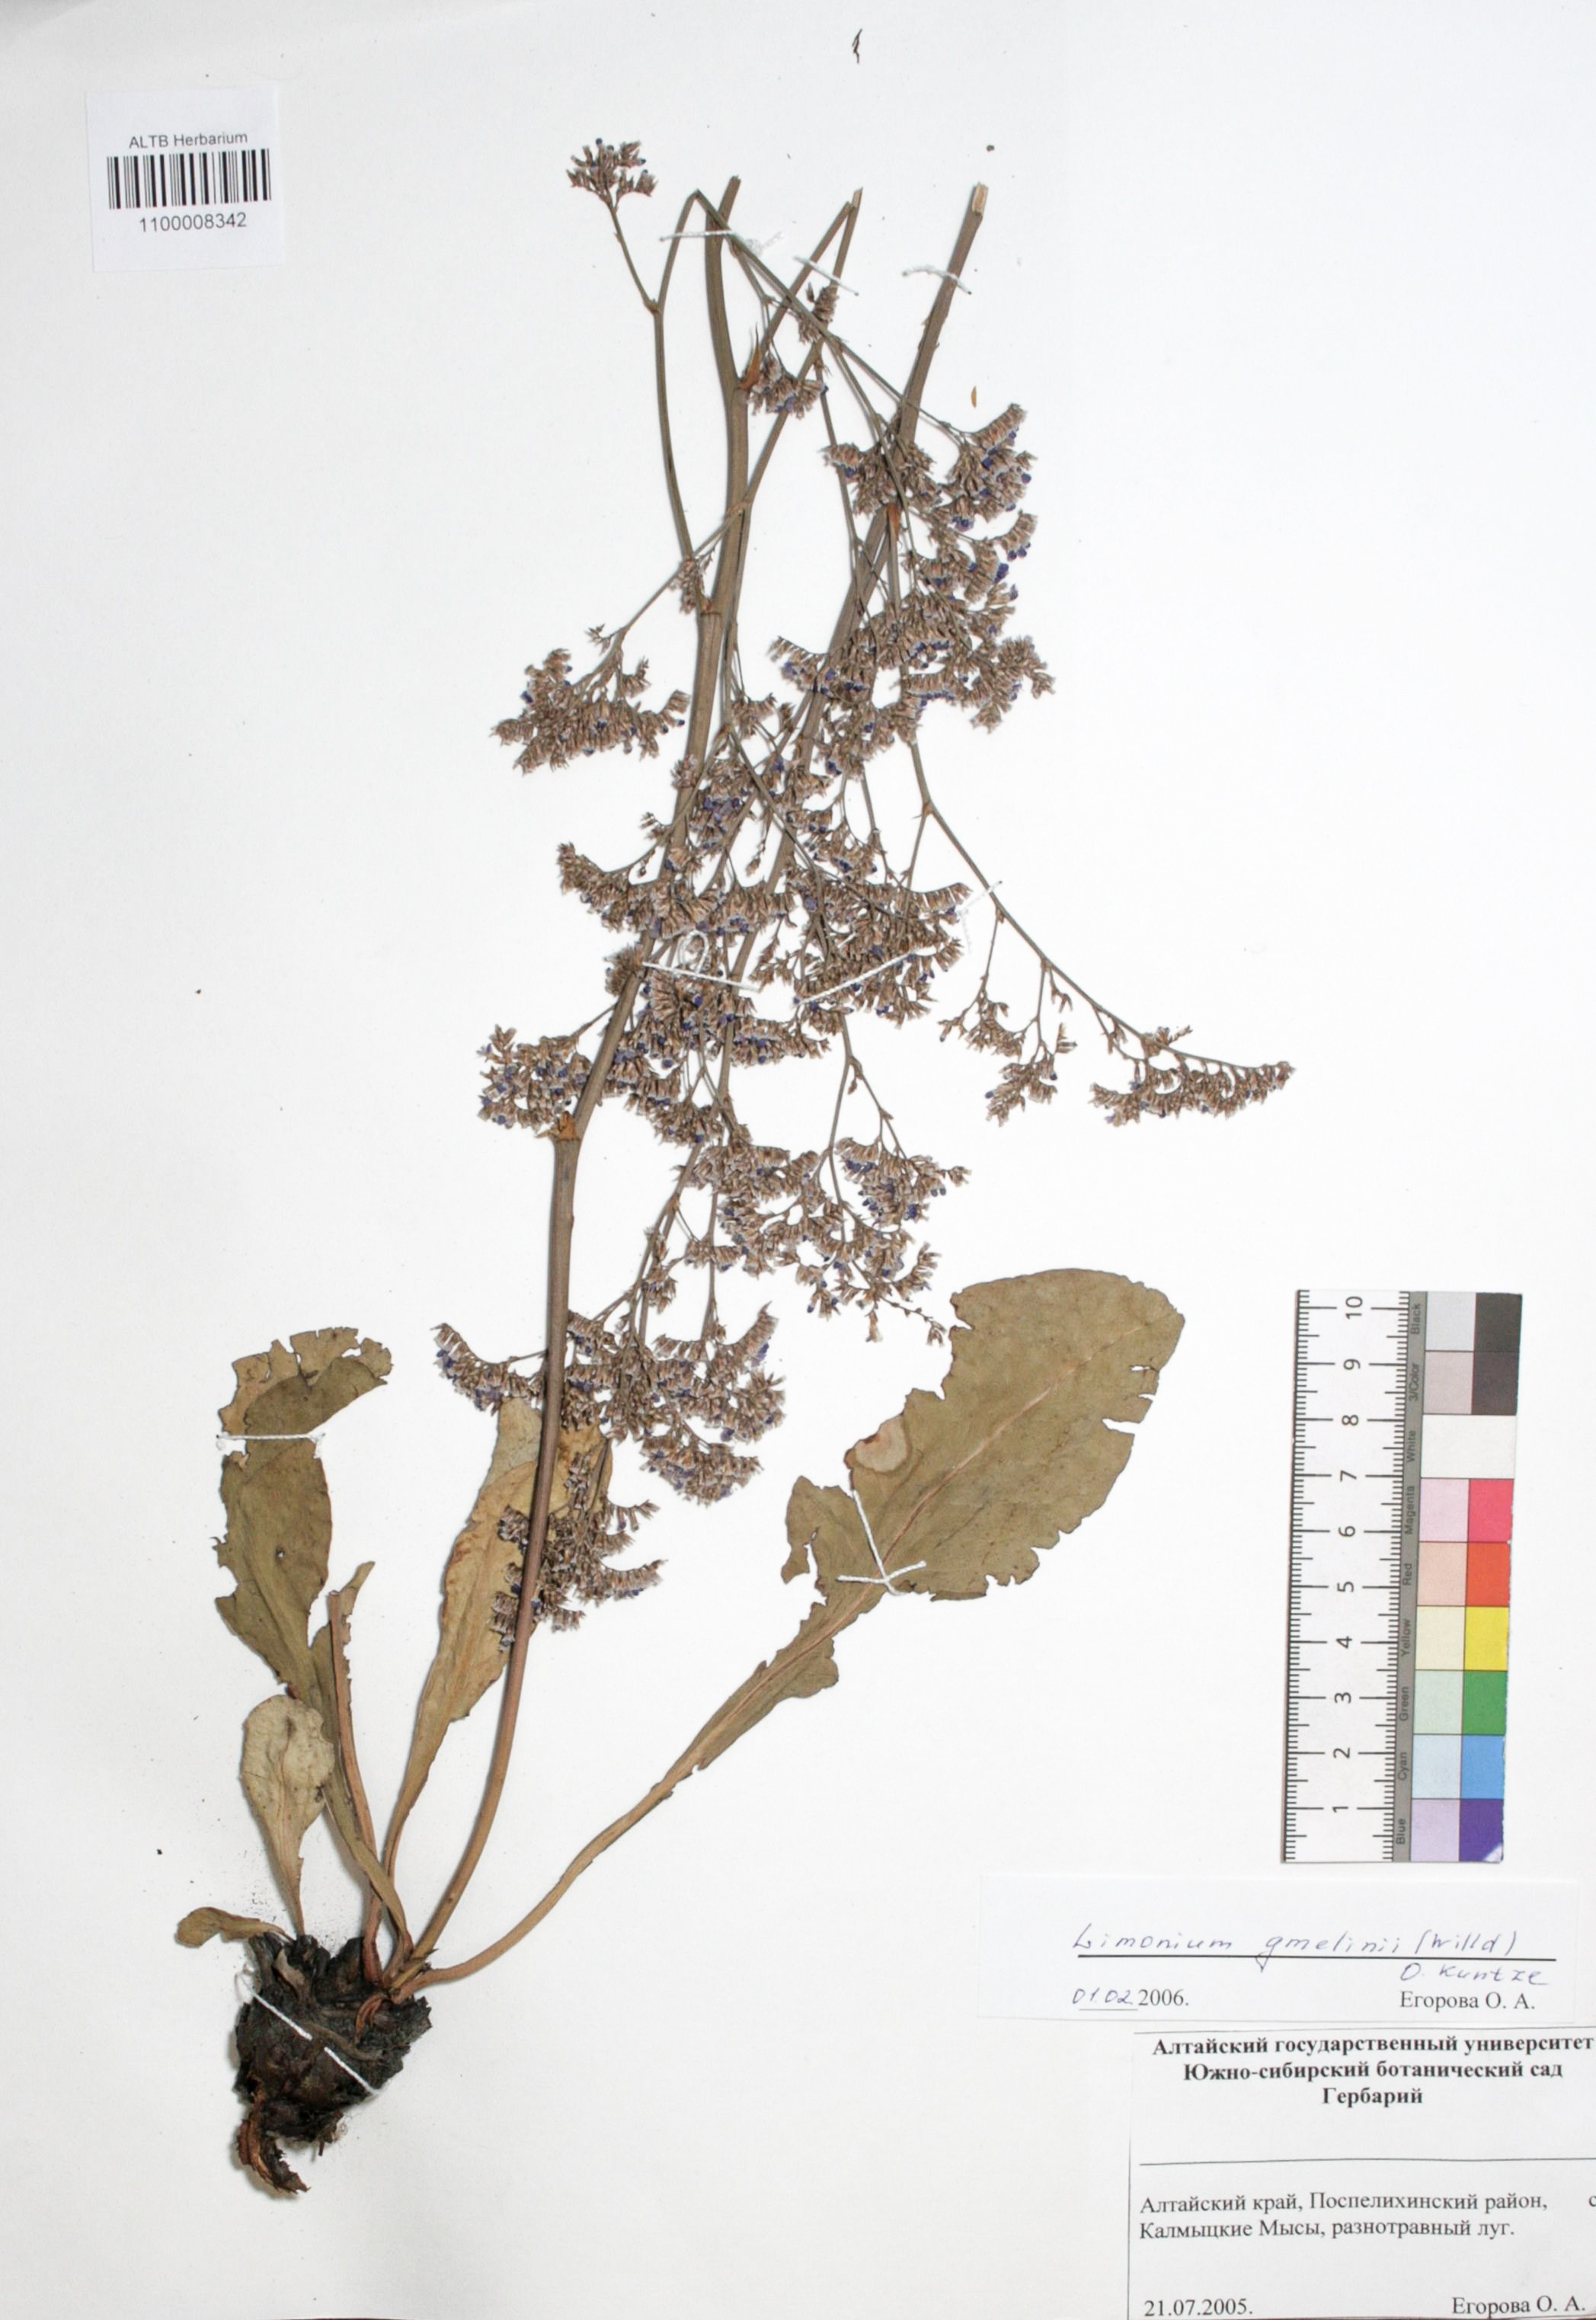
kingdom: Plantae
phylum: Tracheophyta
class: Magnoliopsida
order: Caryophyllales
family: Plumbaginaceae
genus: Limonium
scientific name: Limonium gmelini
